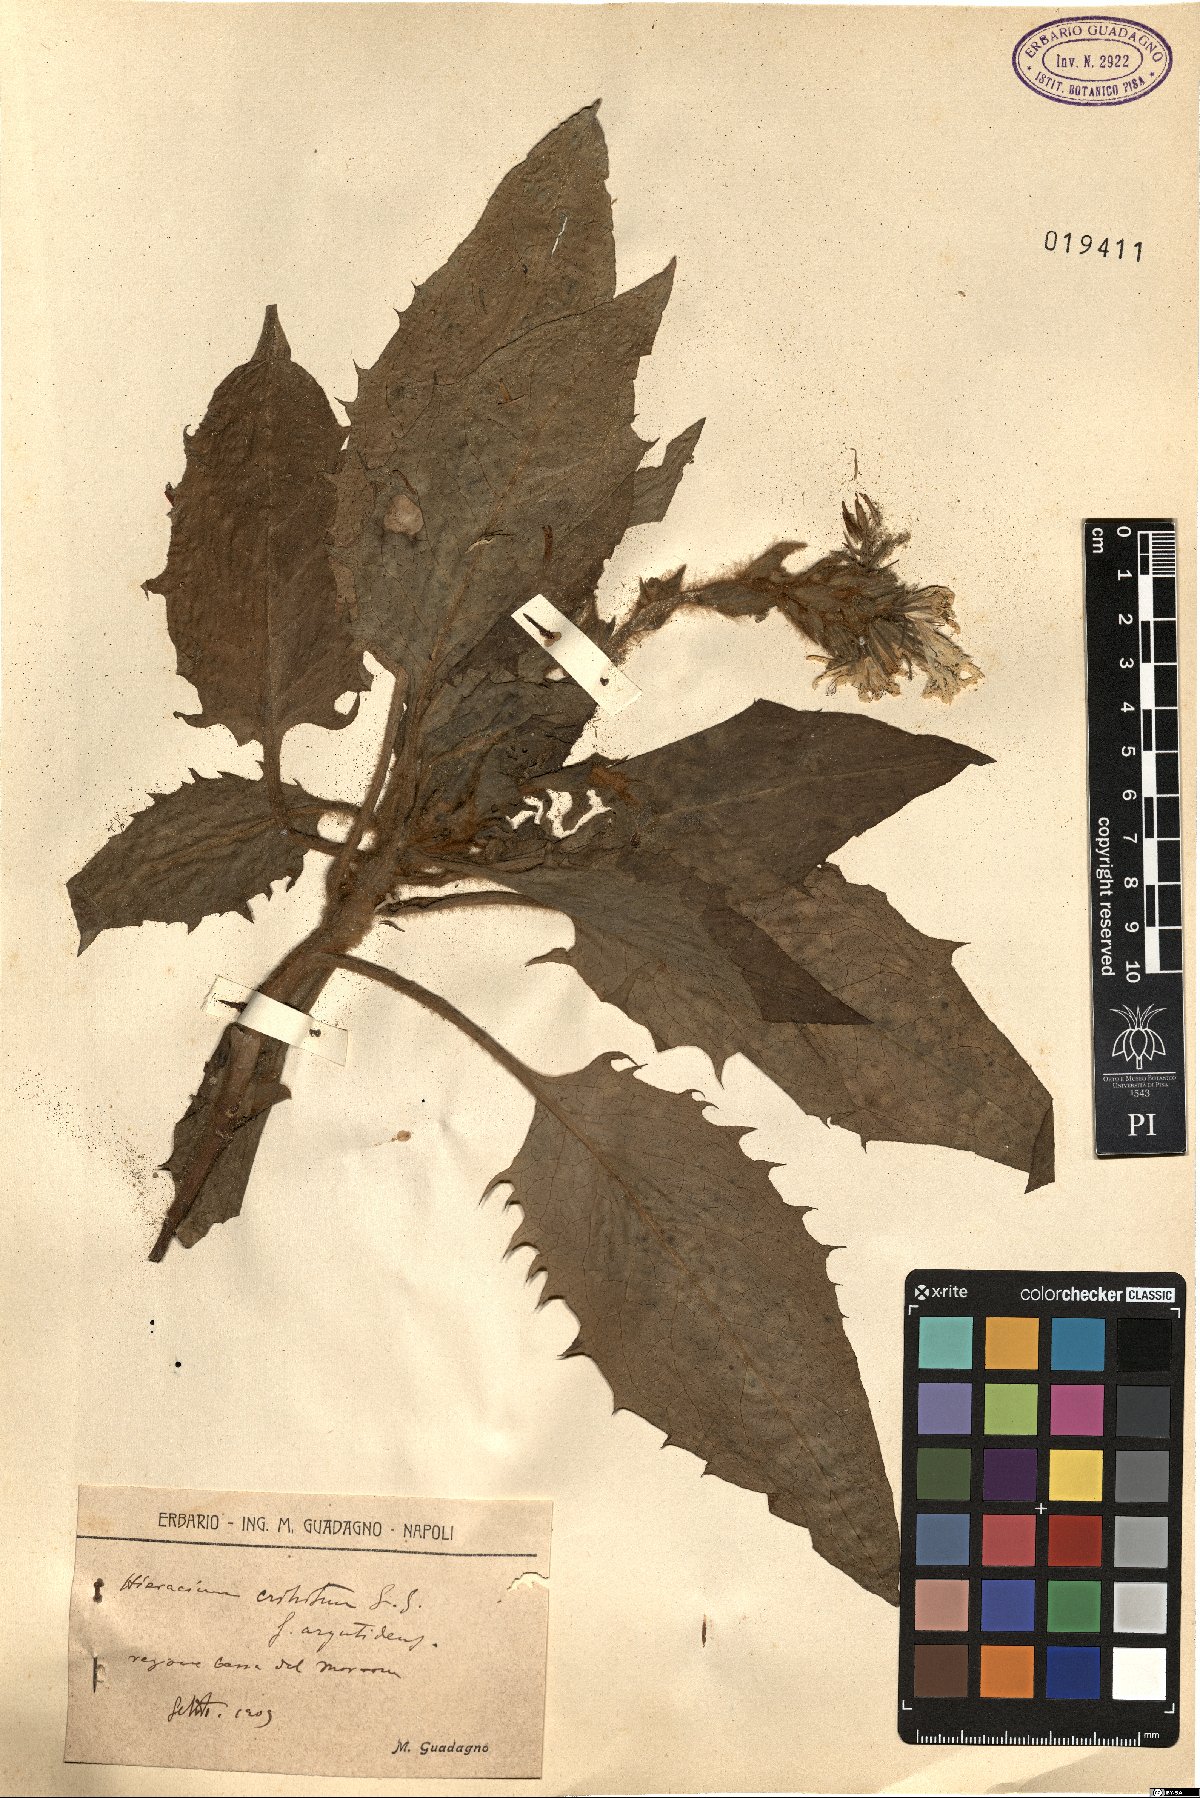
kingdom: Plantae
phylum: Tracheophyta
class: Magnoliopsida
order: Asterales
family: Asteraceae
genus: Hieracium
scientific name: Hieracium racemosum
